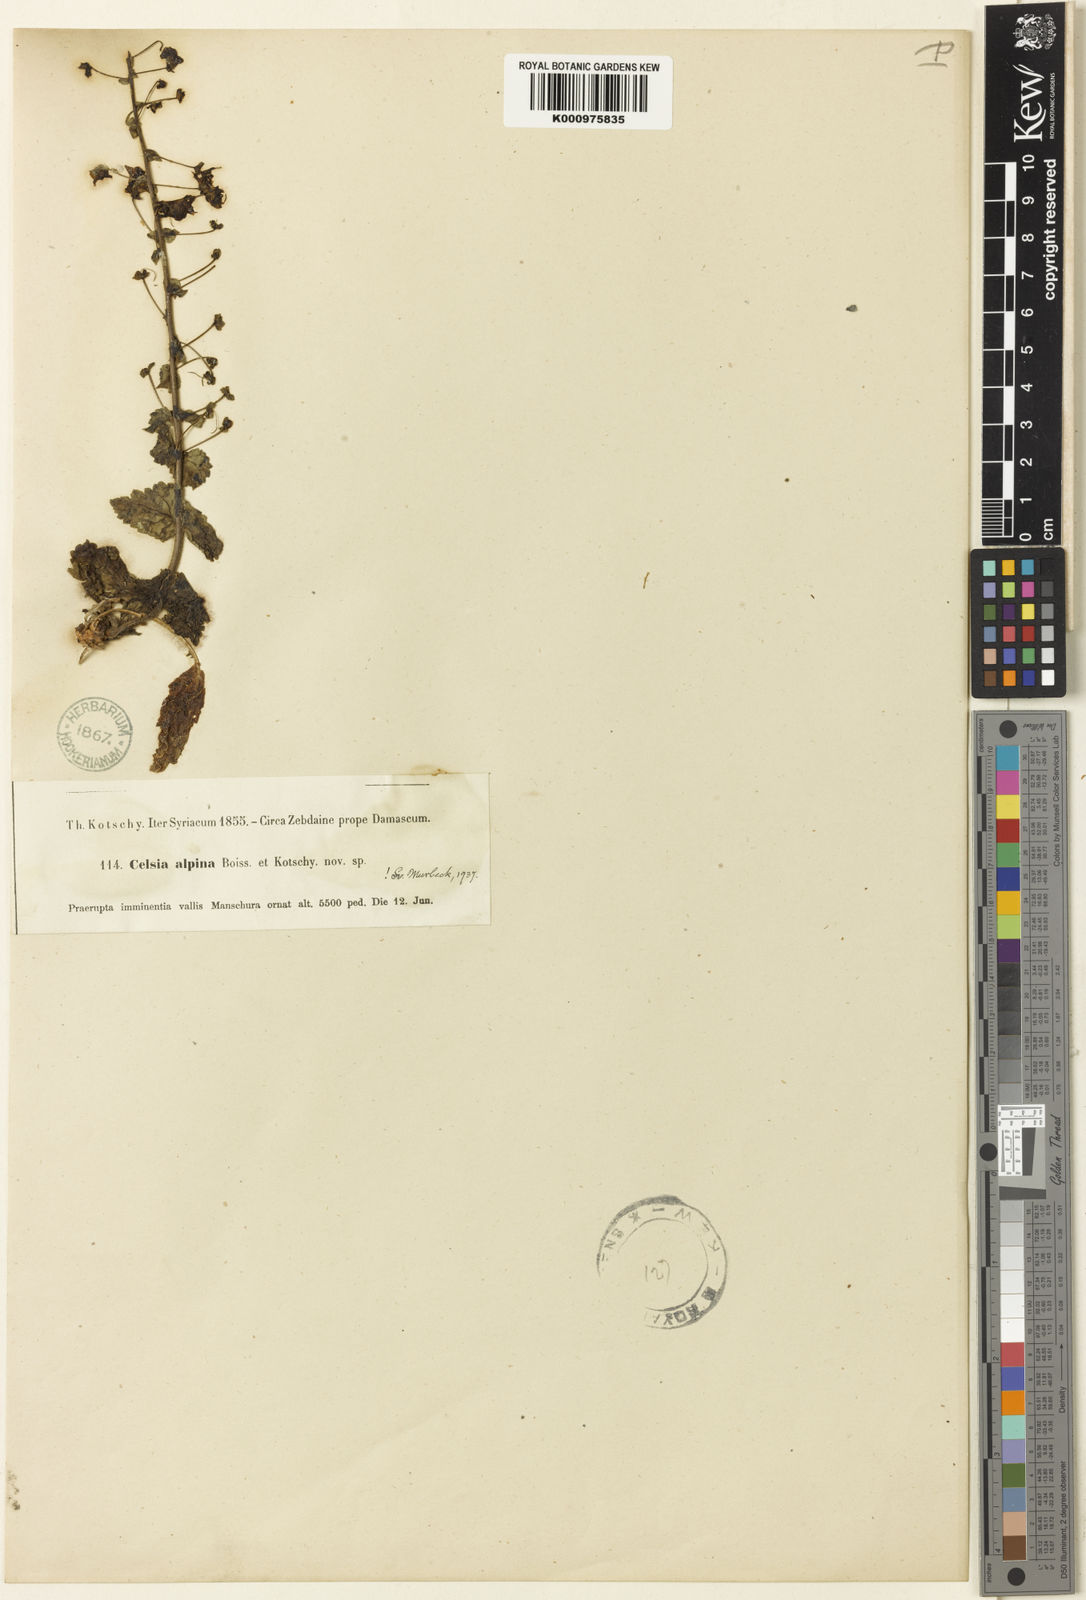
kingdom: Plantae
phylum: Tracheophyta
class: Magnoliopsida
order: Lamiales
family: Scrophulariaceae
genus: Verbascum
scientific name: Verbascum
